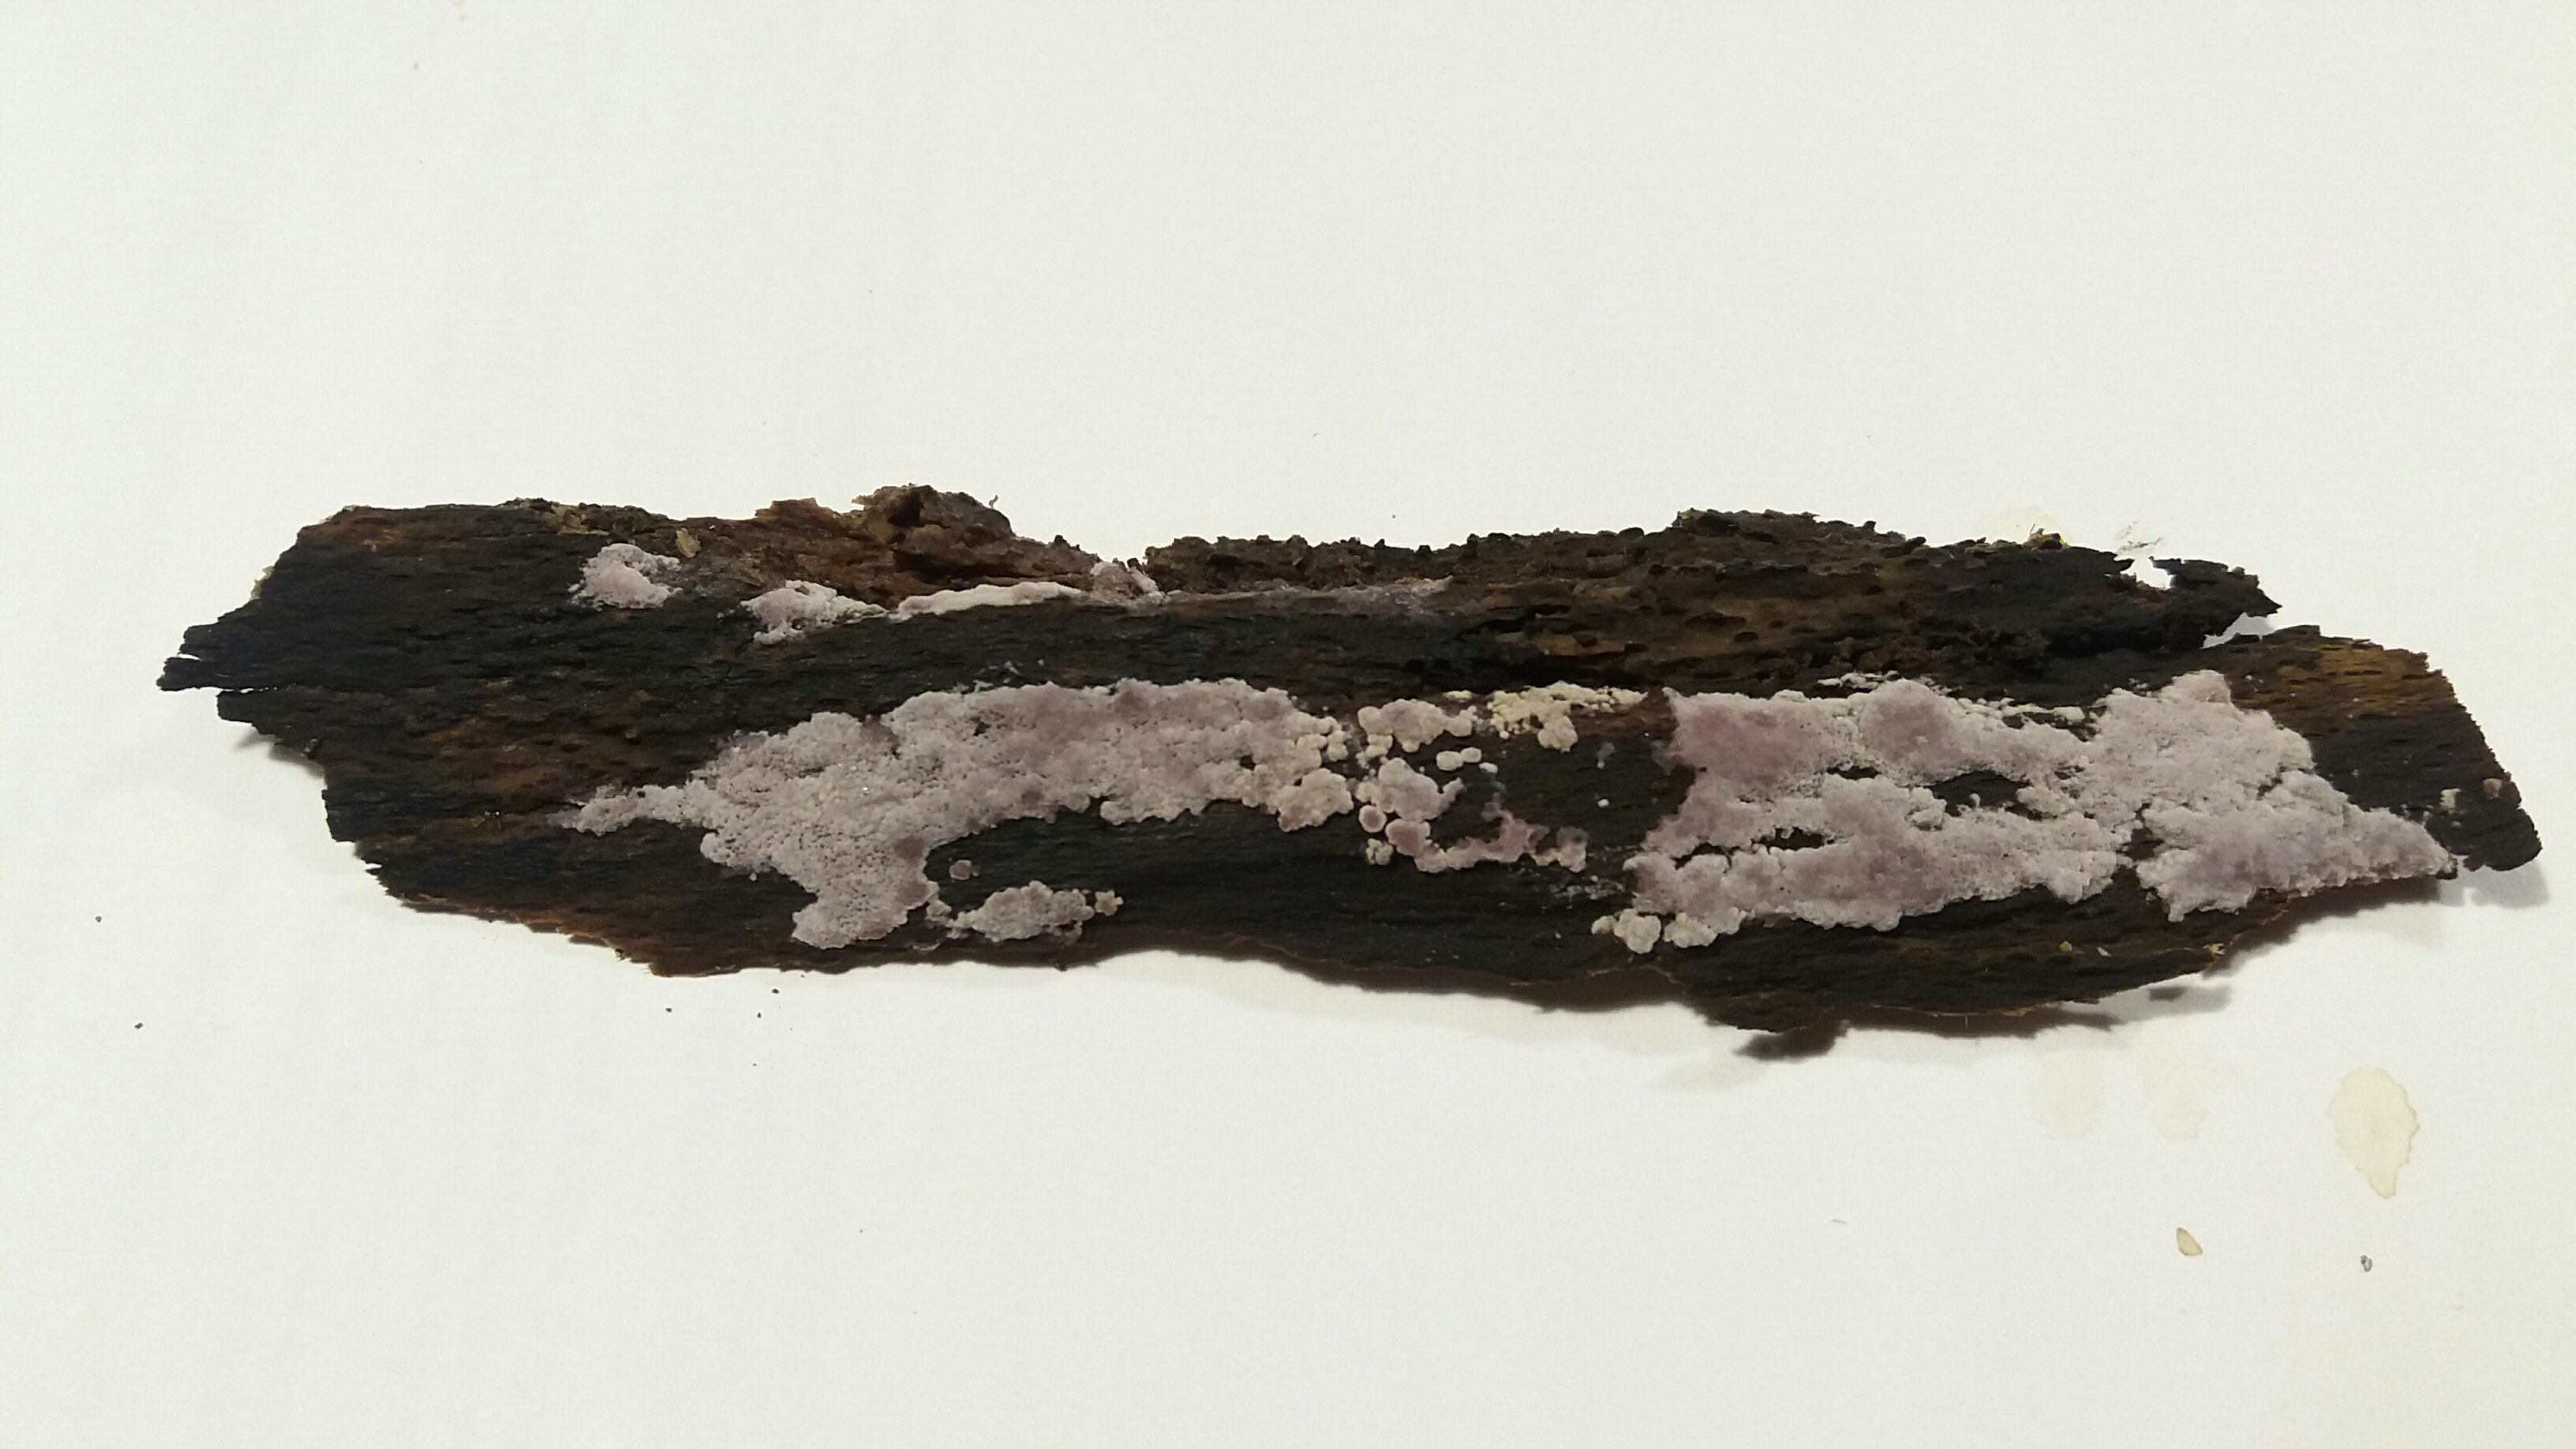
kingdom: Fungi
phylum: Basidiomycota
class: Agaricomycetes
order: Polyporales
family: Irpicaceae
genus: Ceriporia
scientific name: Ceriporia viridans
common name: foranderlig voksporesvamp
